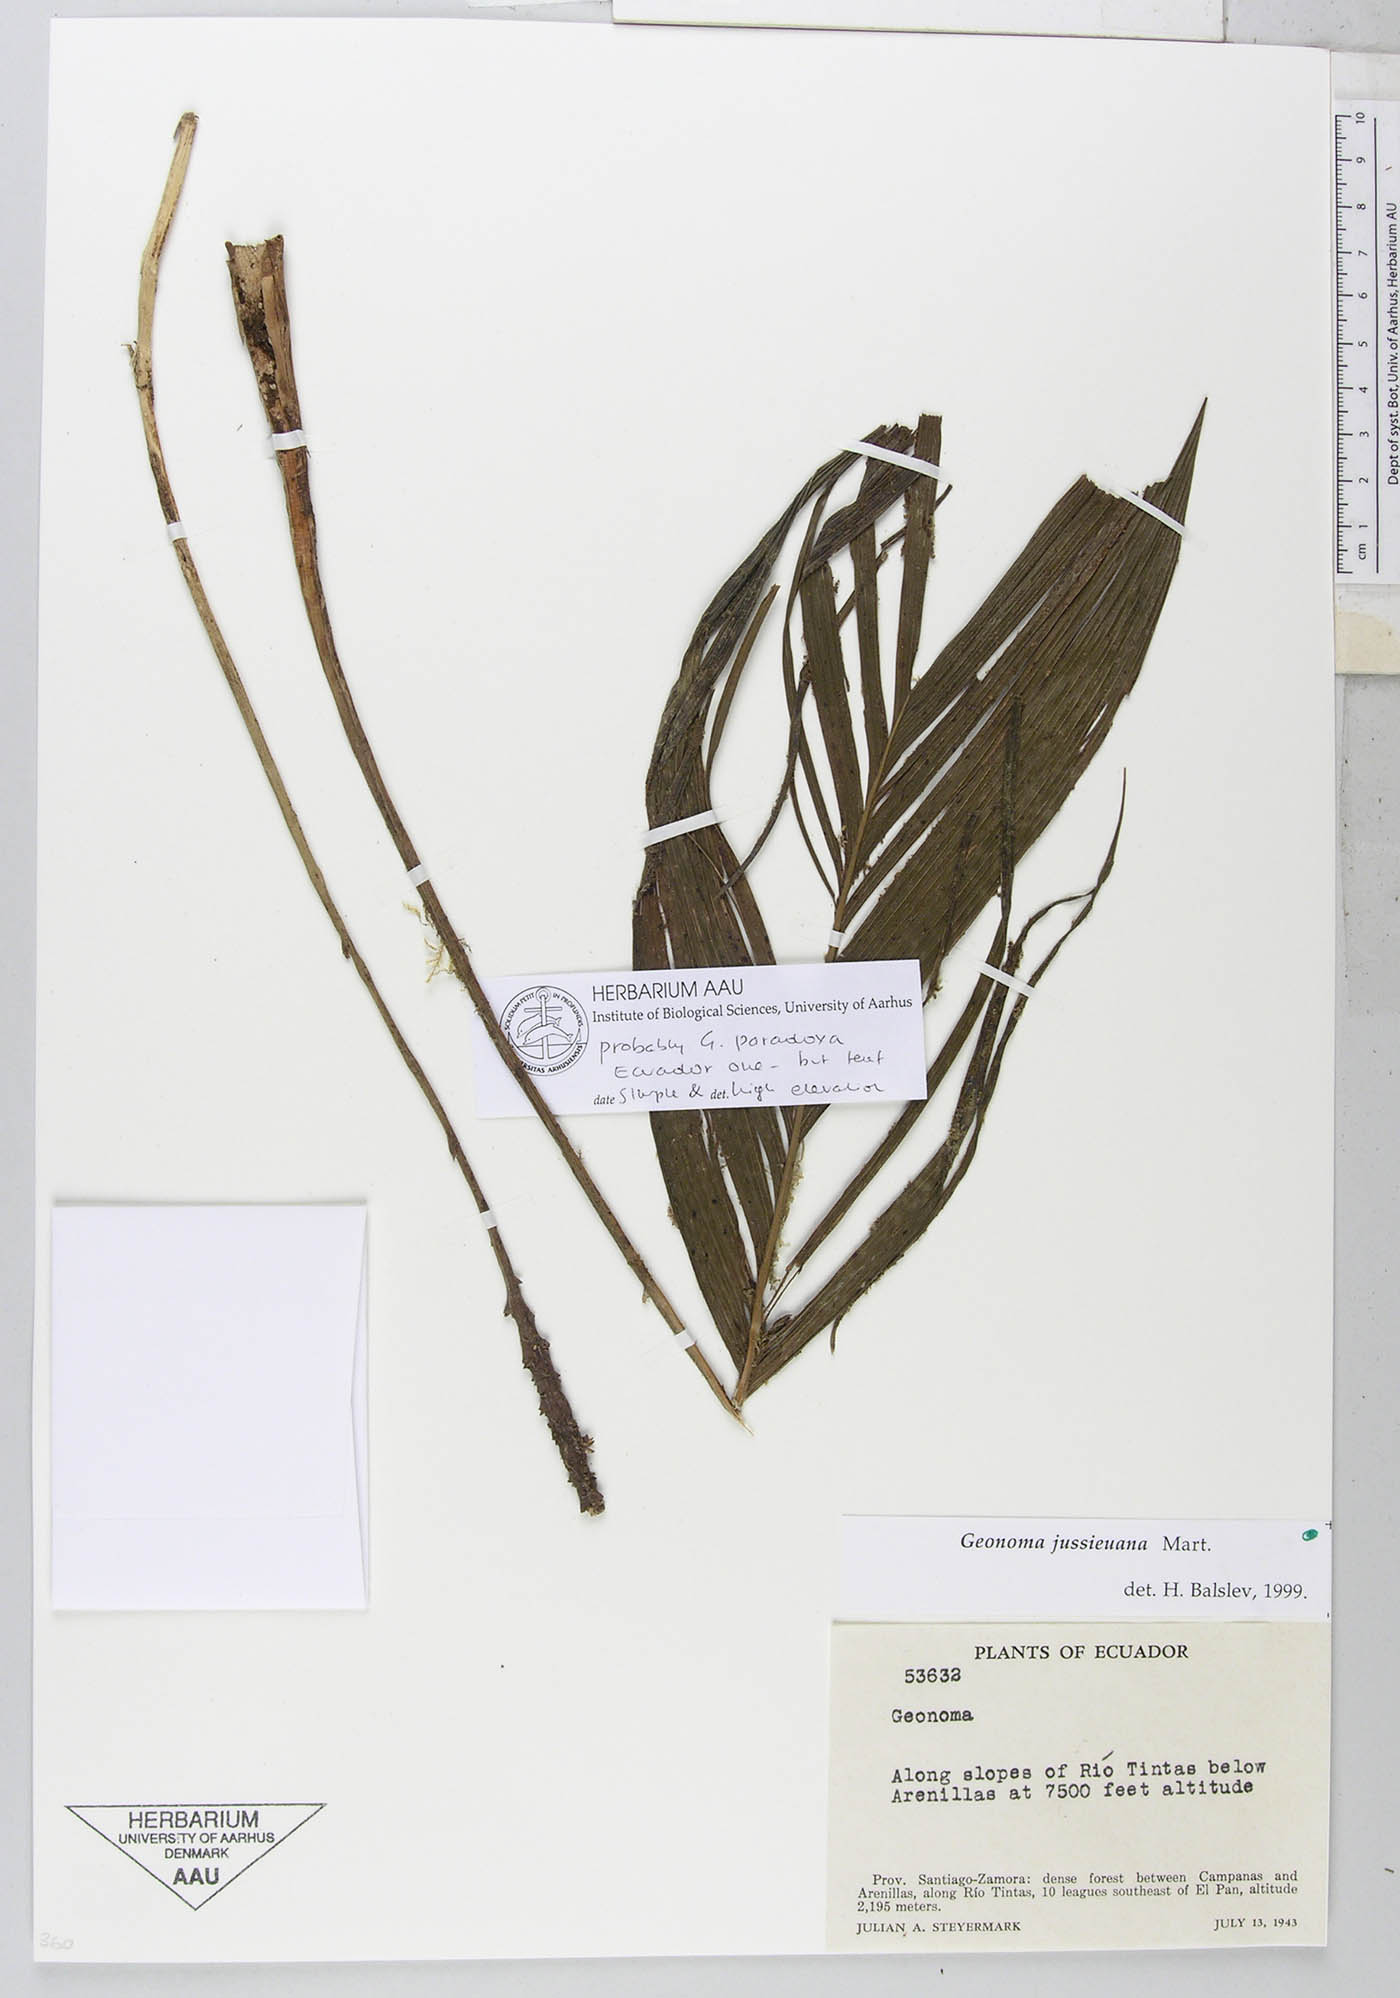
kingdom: Plantae
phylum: Tracheophyta
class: Liliopsida
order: Arecales
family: Arecaceae
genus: Geonoma
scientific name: Geonoma lehmannii
